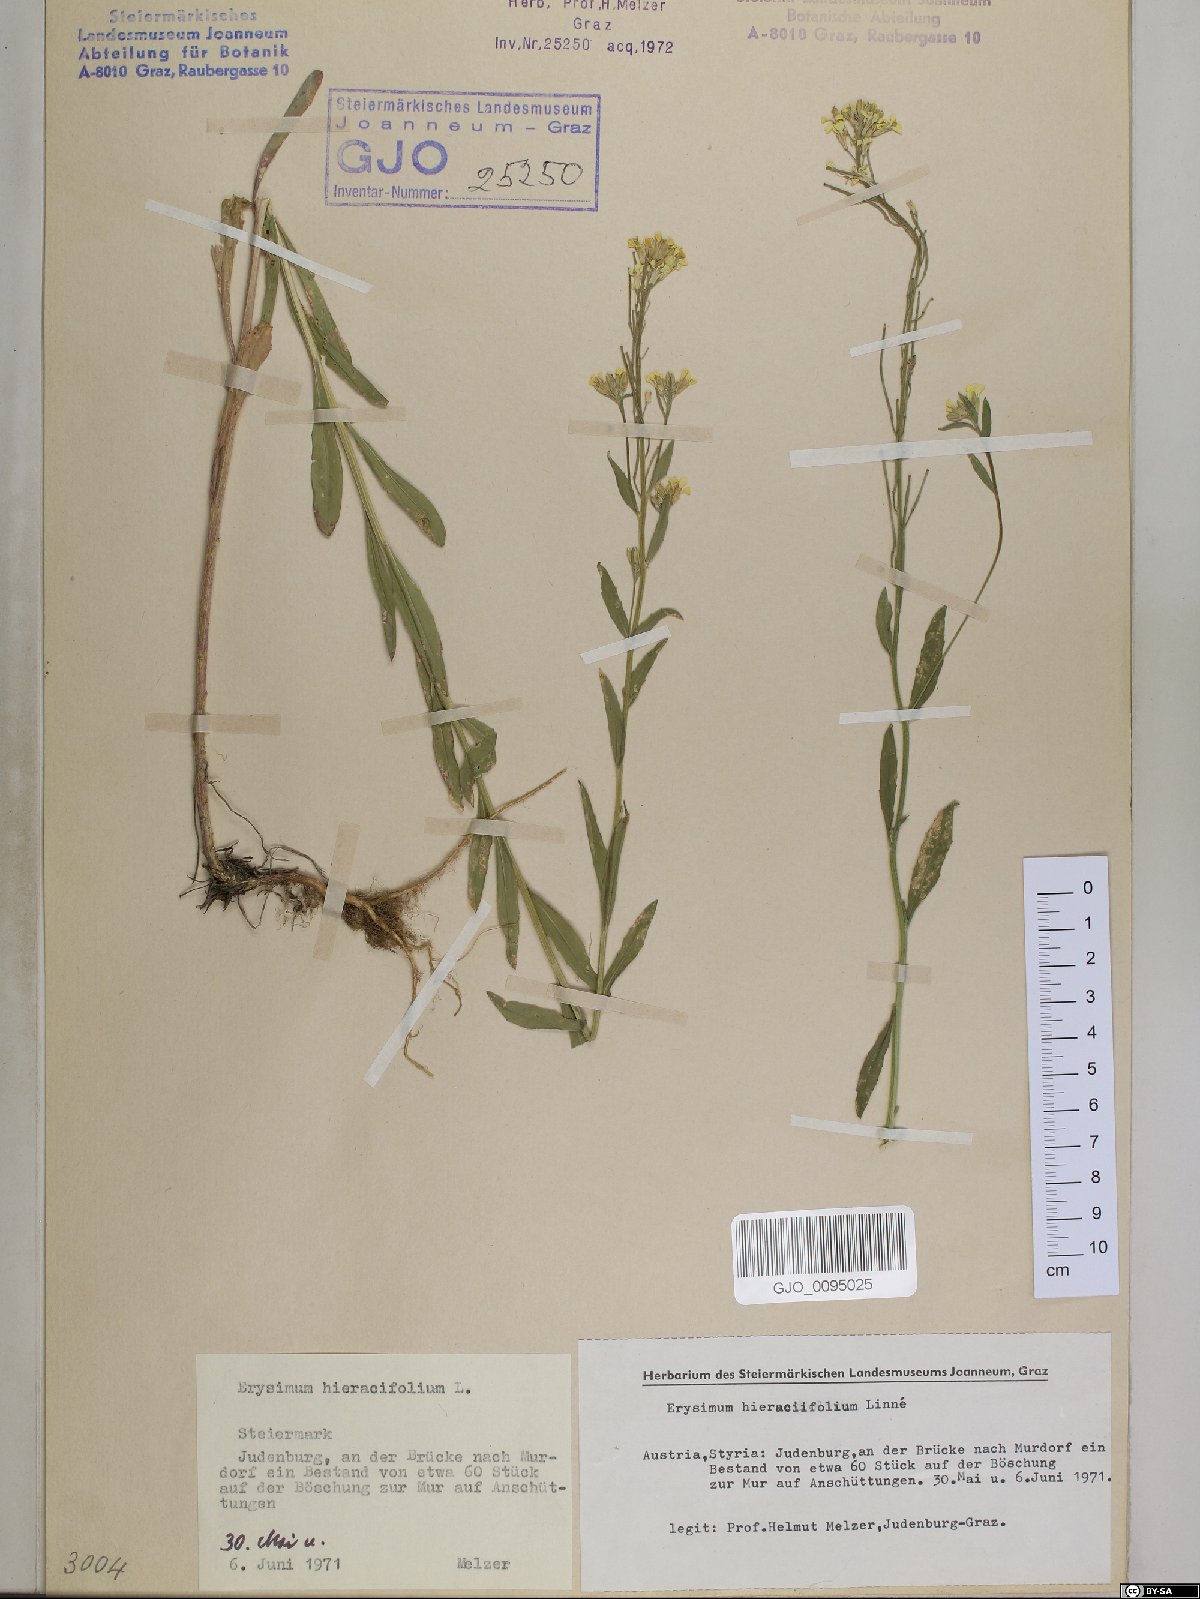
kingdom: Plantae
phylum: Tracheophyta
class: Magnoliopsida
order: Brassicales
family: Brassicaceae
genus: Erysimum
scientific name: Erysimum hieraciifolium
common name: European wallflower
